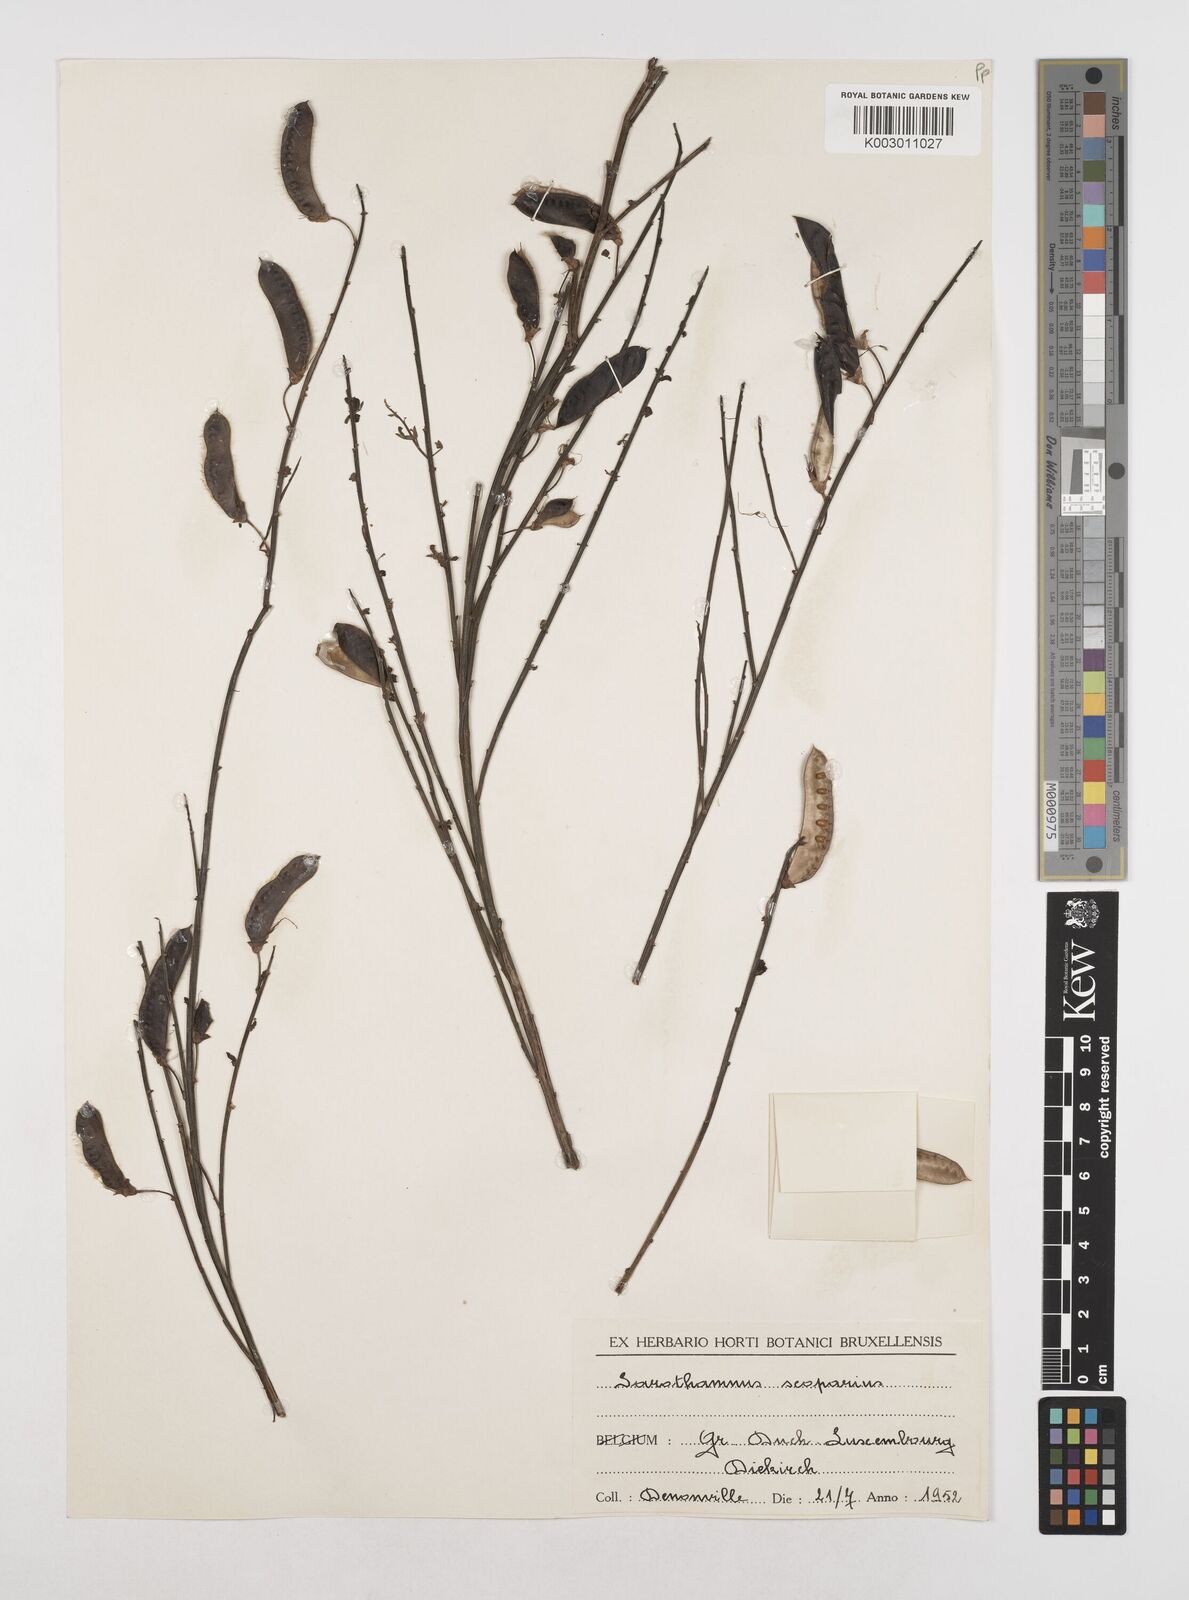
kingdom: Plantae
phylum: Tracheophyta
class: Magnoliopsida
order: Fabales
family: Fabaceae
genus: Cytisus
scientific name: Cytisus scoparius
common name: Scotch broom
